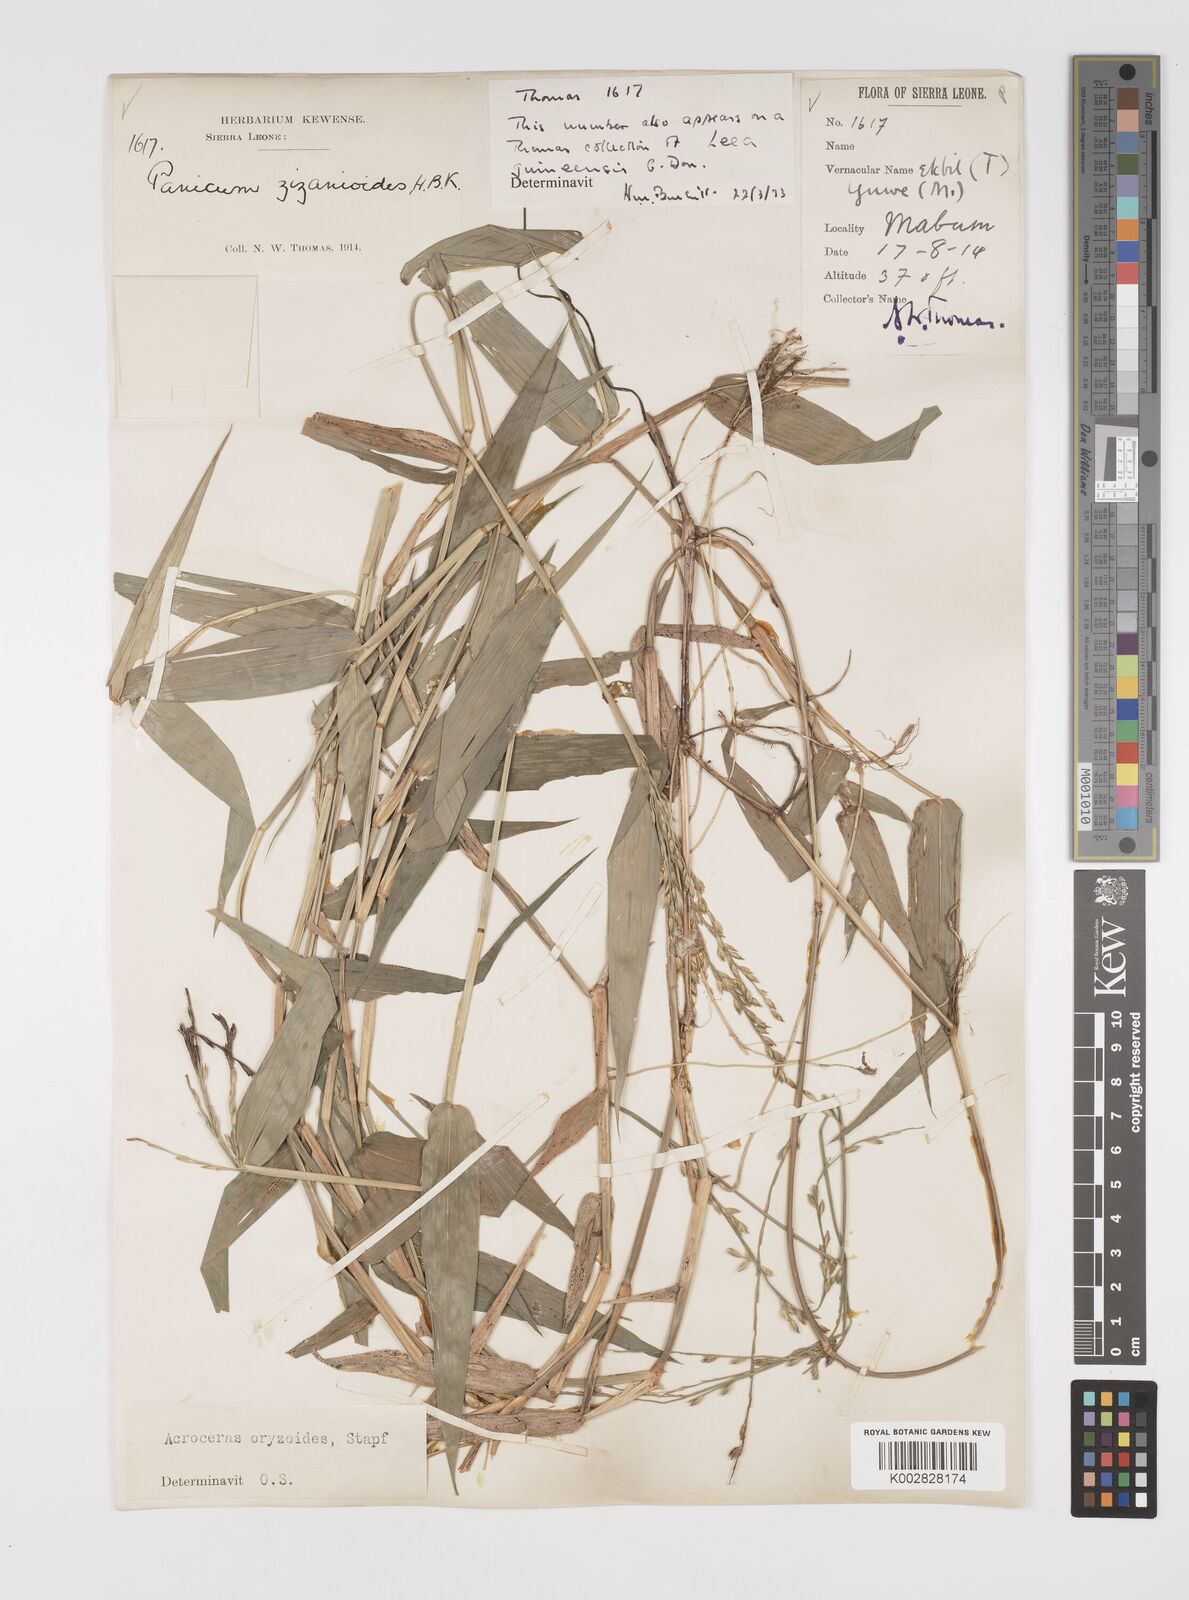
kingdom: Plantae
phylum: Tracheophyta
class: Liliopsida
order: Poales
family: Poaceae
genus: Acroceras
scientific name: Acroceras zizanioides
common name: Oat grass
